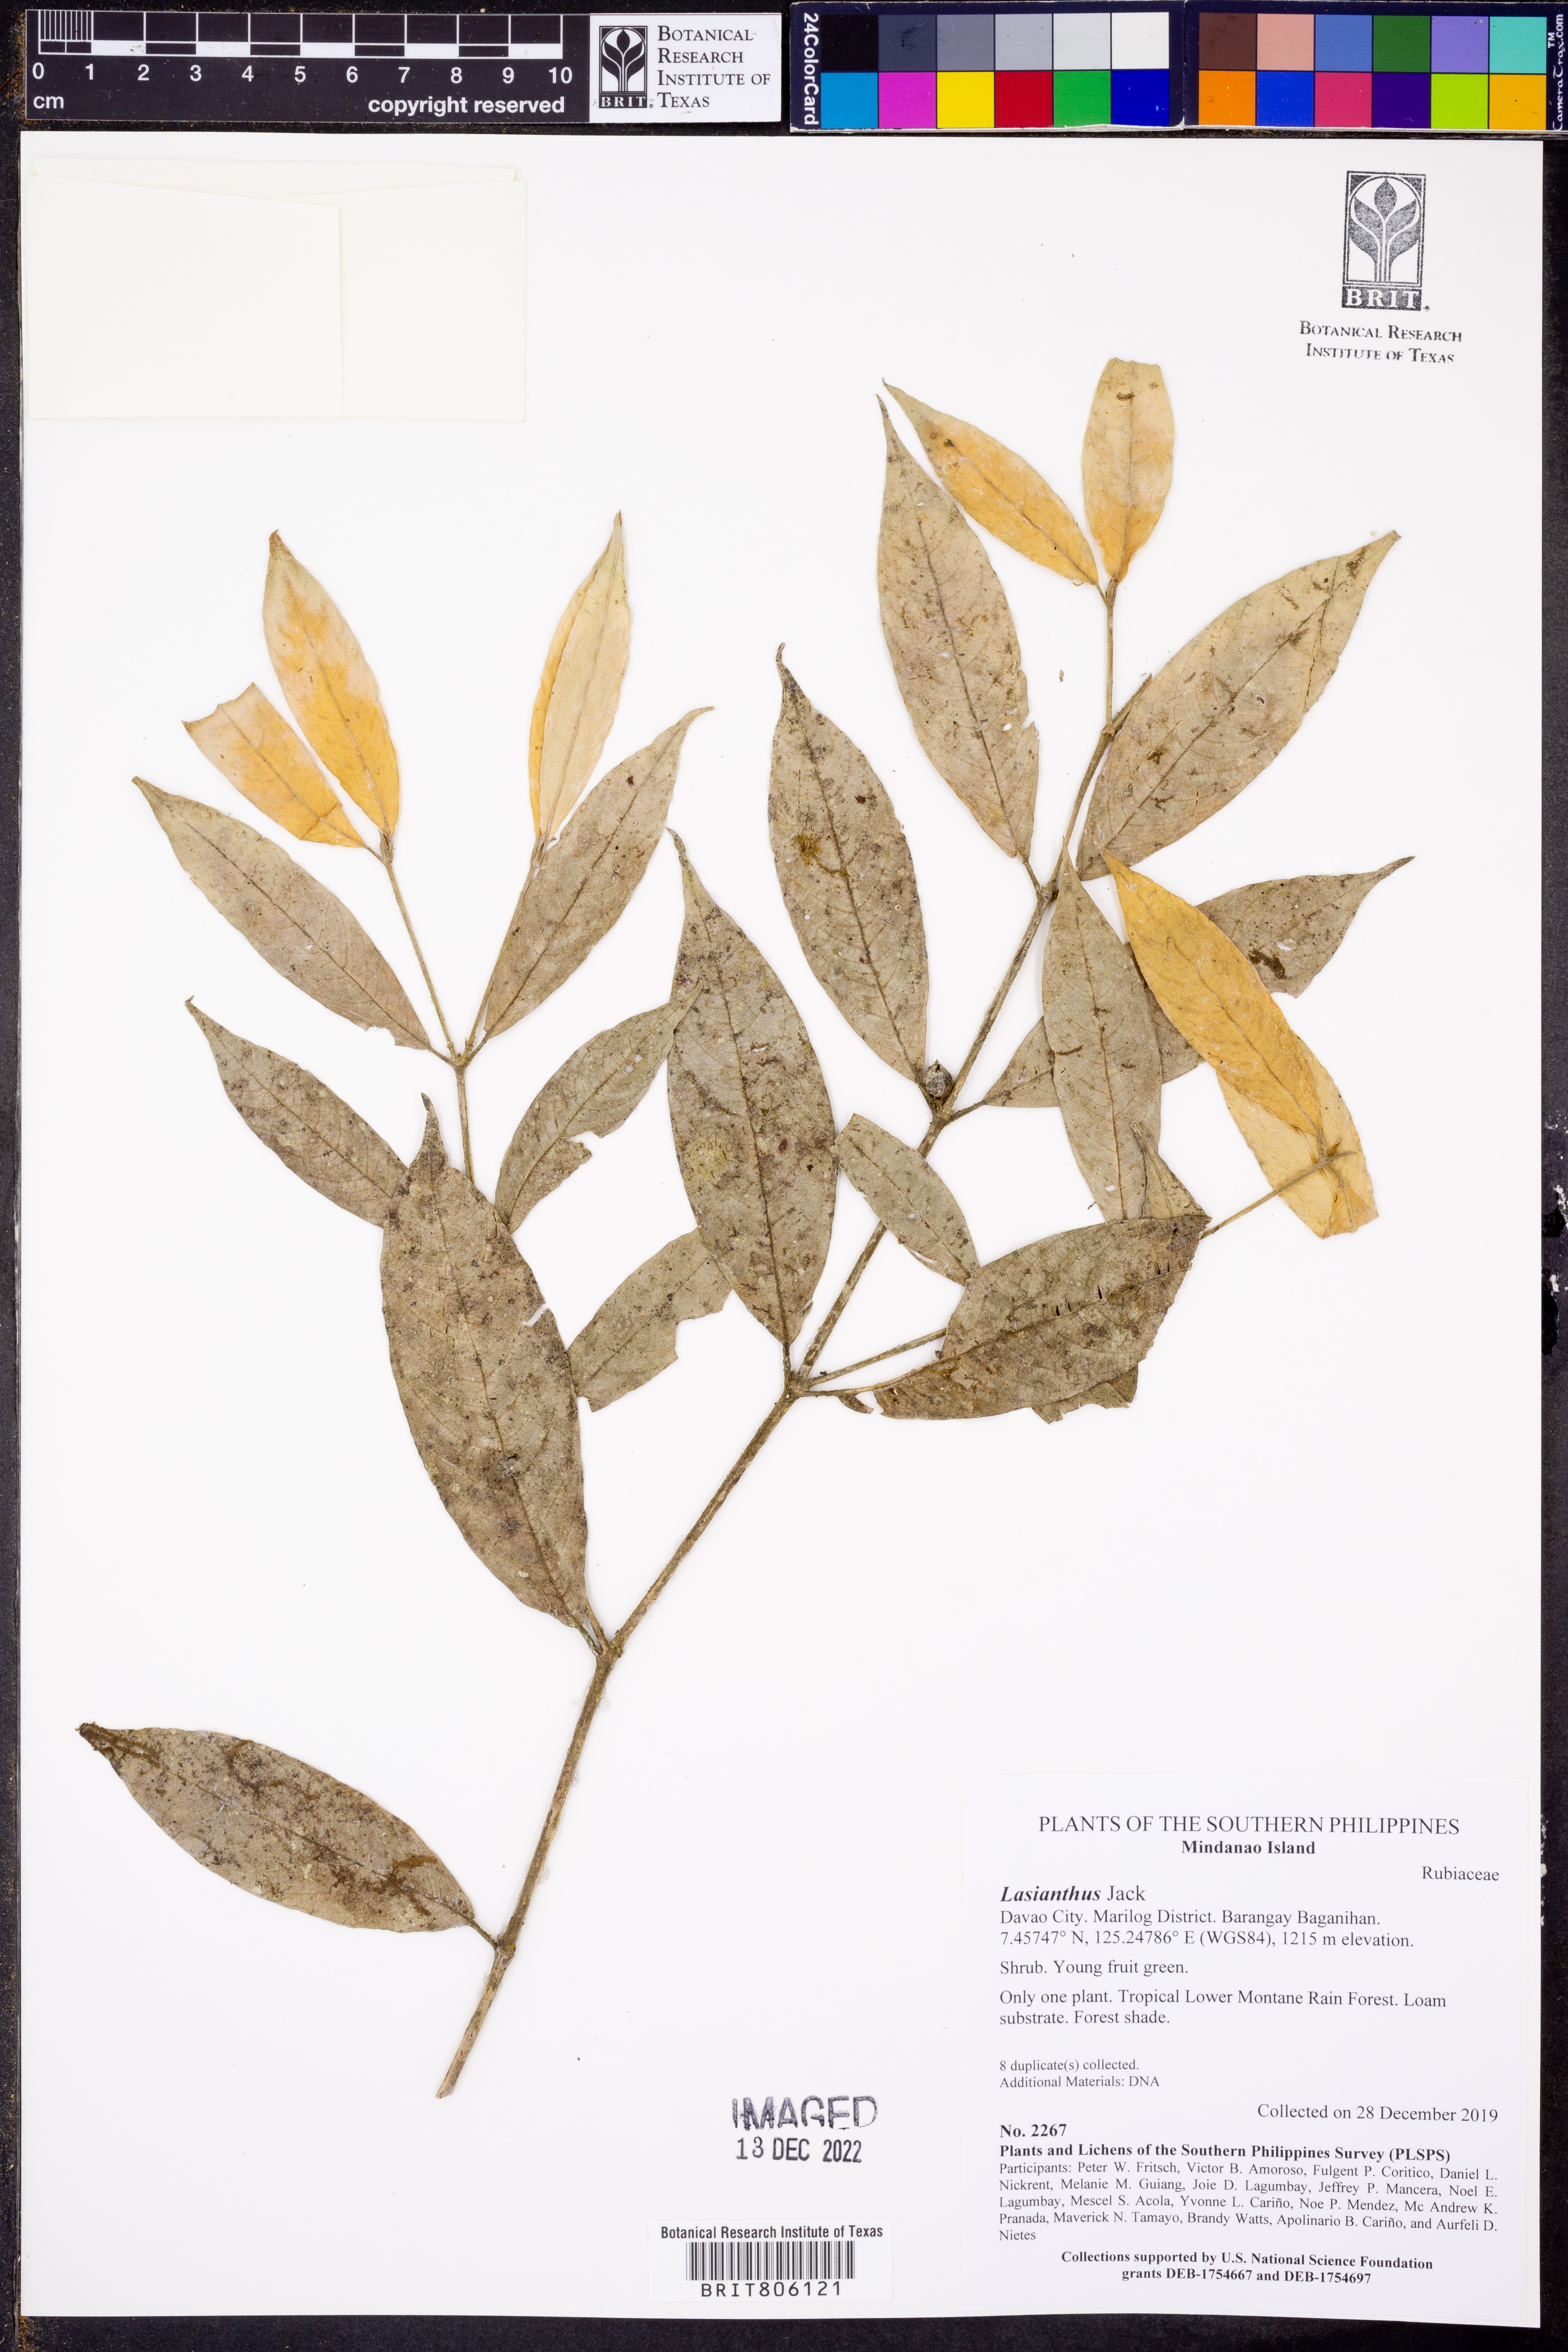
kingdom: Plantae
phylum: Tracheophyta
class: Magnoliopsida
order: Gentianales
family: Rubiaceae
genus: Lasianthus
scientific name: Lasianthus
